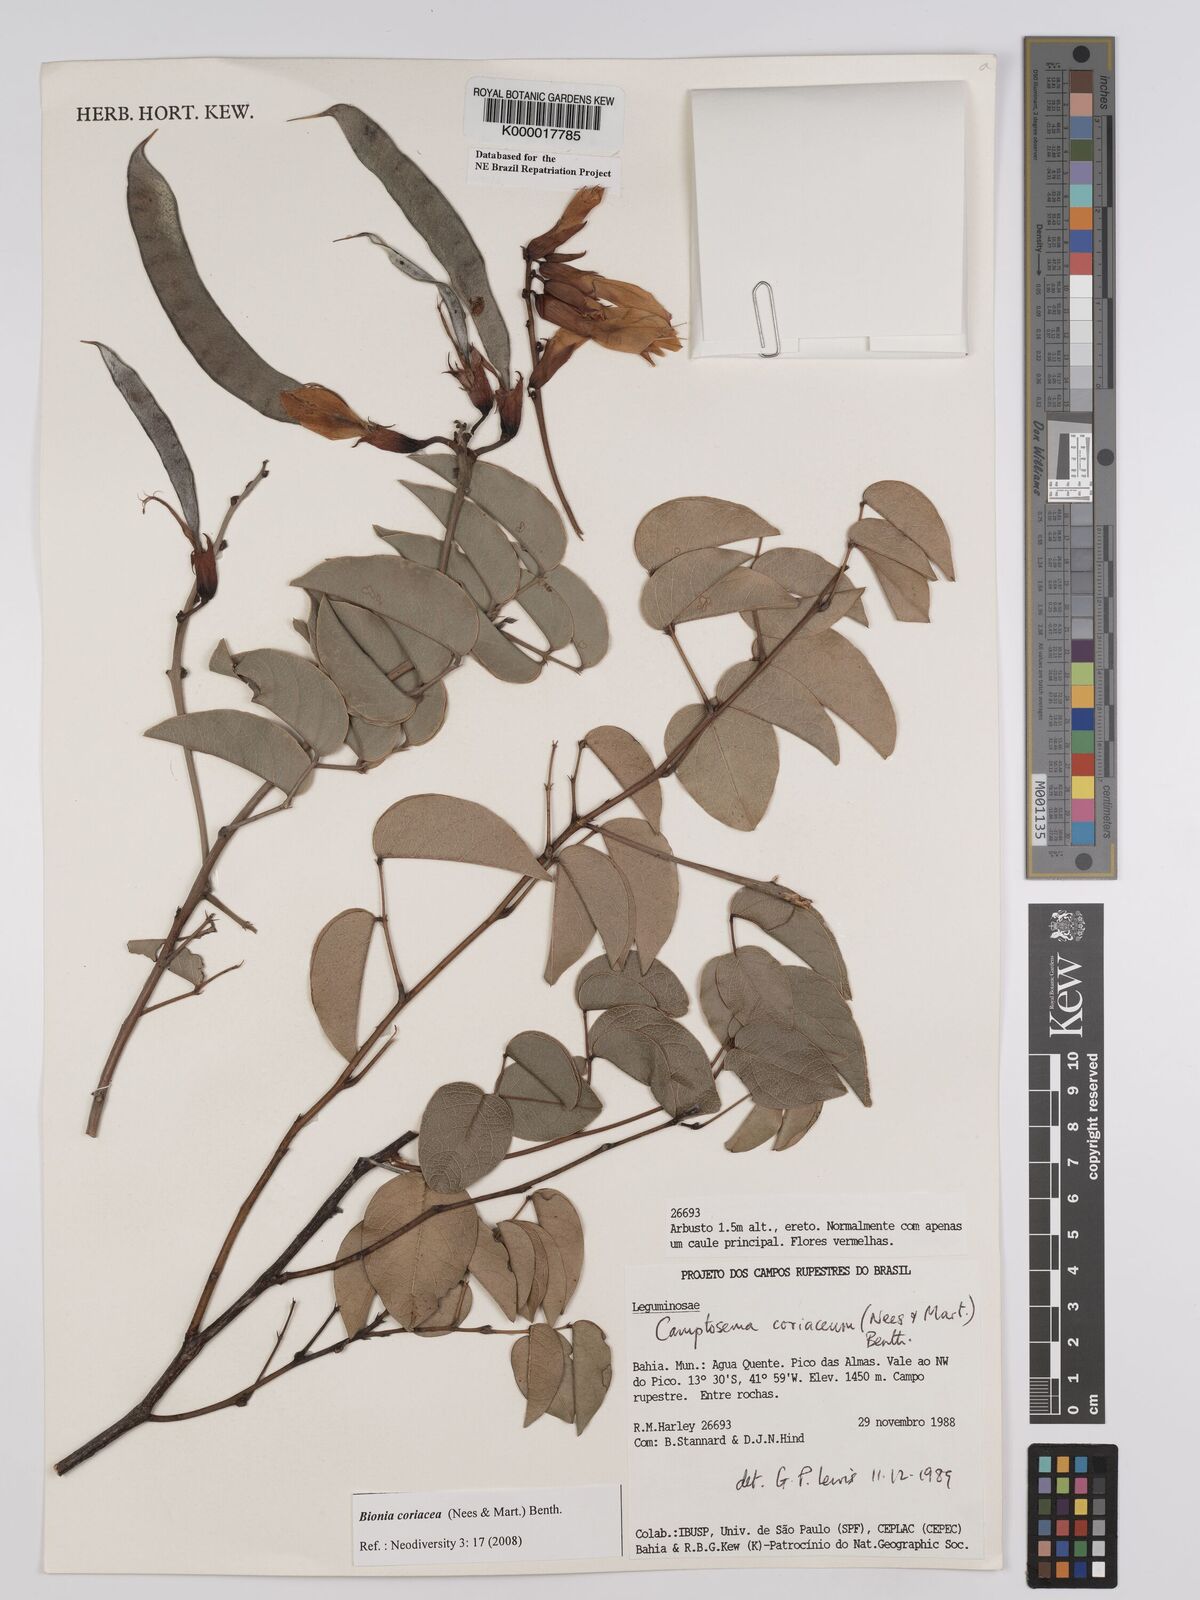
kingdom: Plantae
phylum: Tracheophyta
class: Magnoliopsida
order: Fabales
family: Fabaceae
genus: Camptosema
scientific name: Camptosema coriaceum
